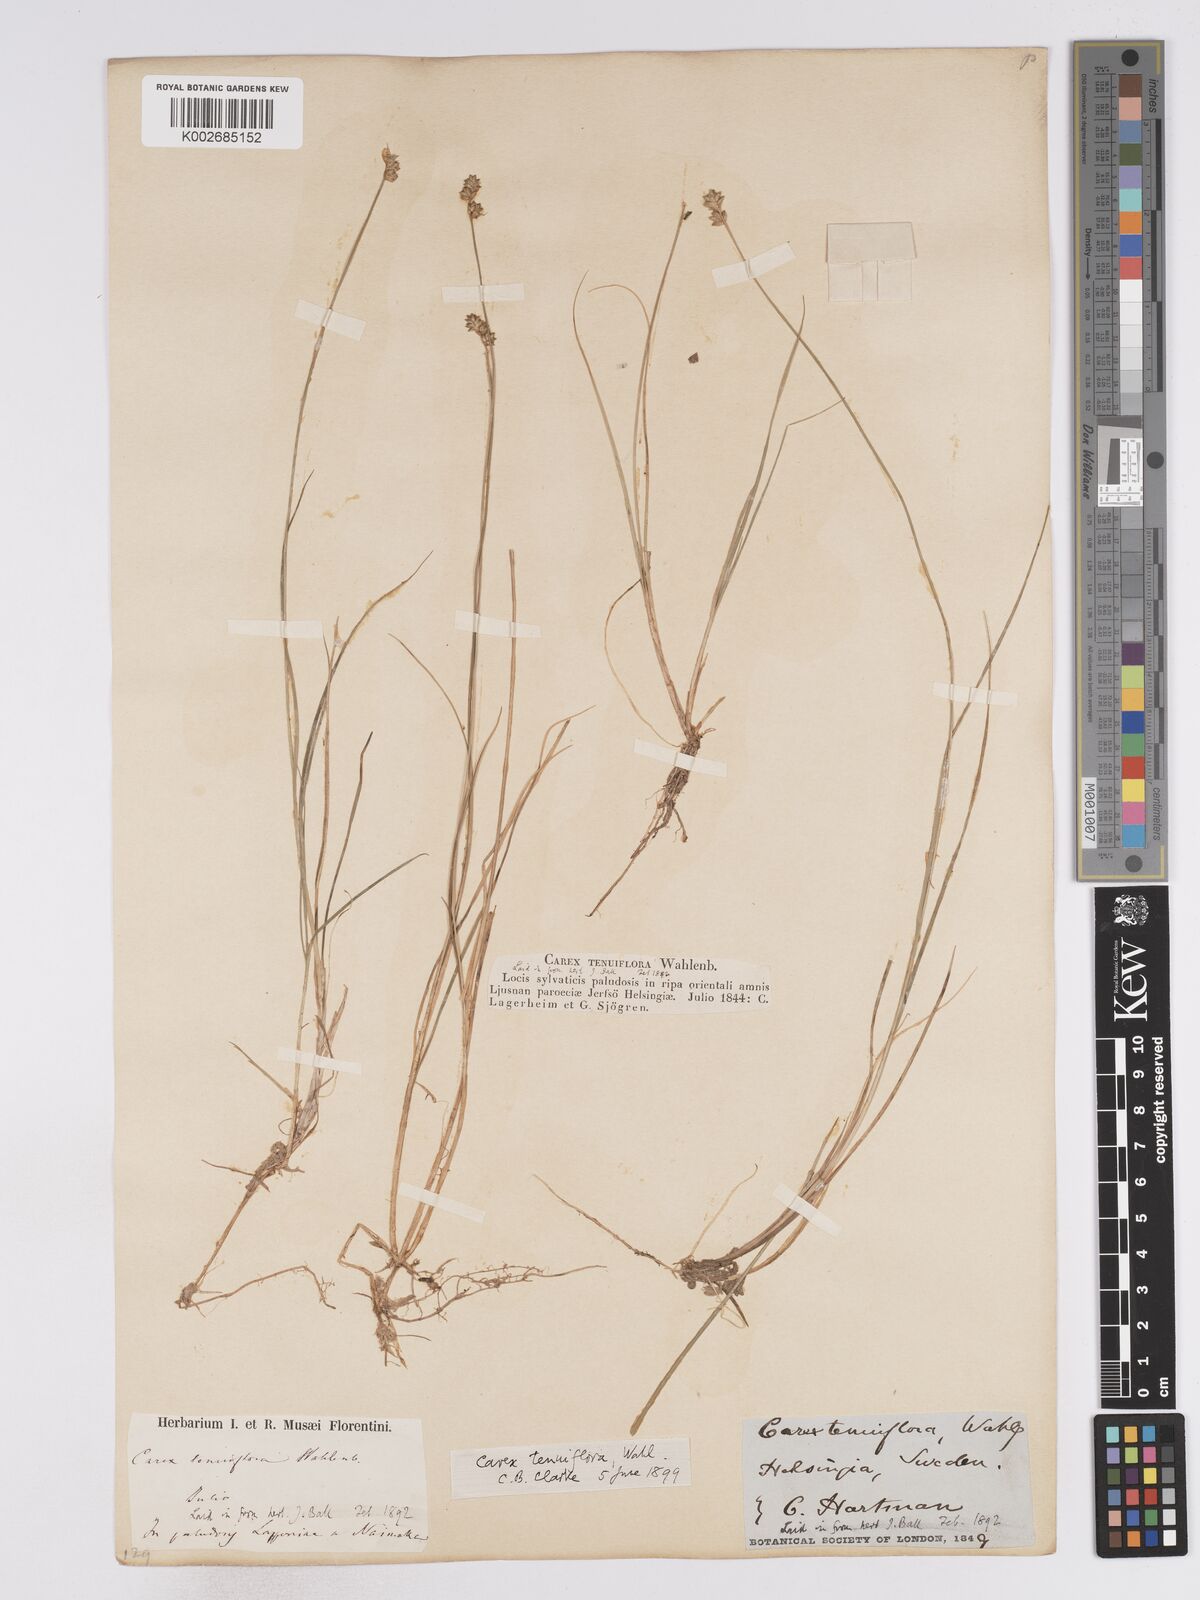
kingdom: Plantae
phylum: Tracheophyta
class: Liliopsida
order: Poales
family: Cyperaceae
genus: Carex
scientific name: Carex tenuiflora
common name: Sparse-flowered sedge
